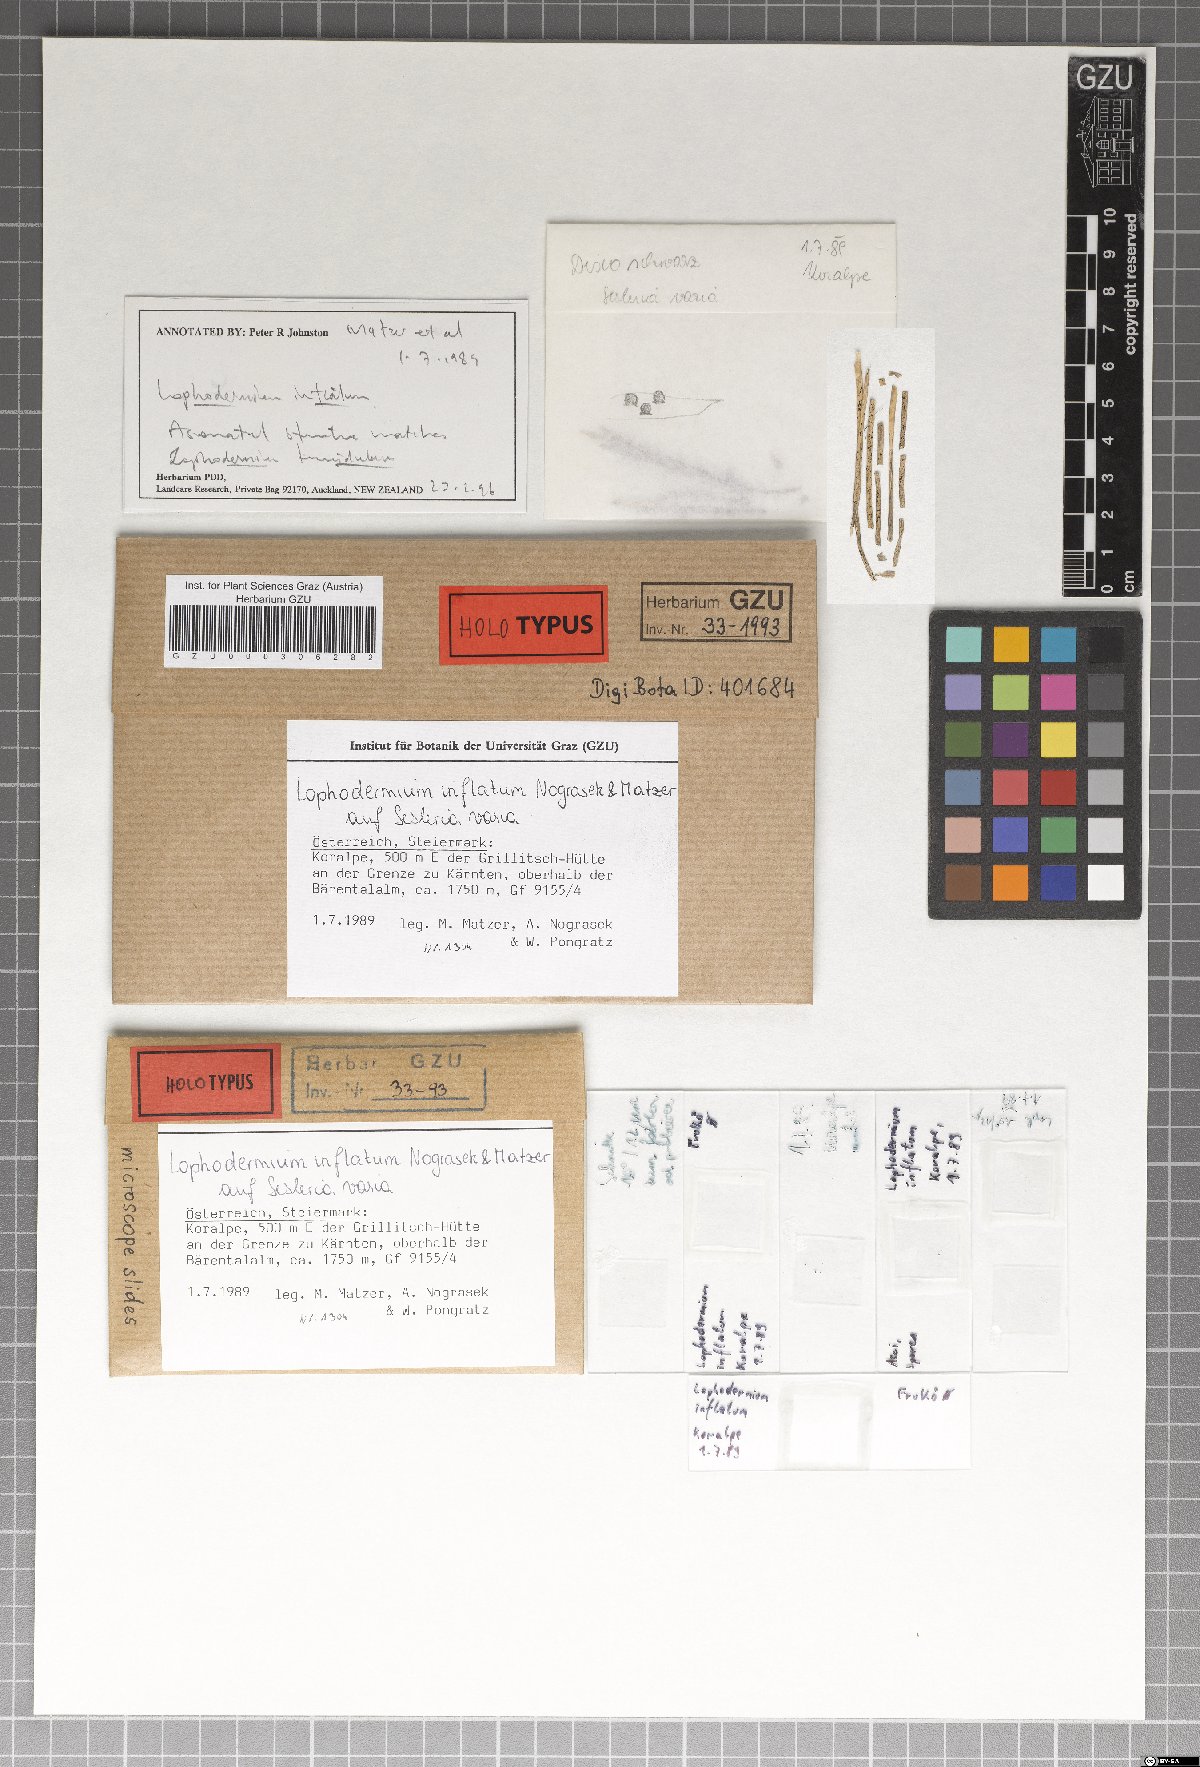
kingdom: Fungi
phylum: Ascomycota
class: Leotiomycetes
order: Rhytismatales
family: Rhytismataceae
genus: Lophodermium
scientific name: Lophodermium inflatum
